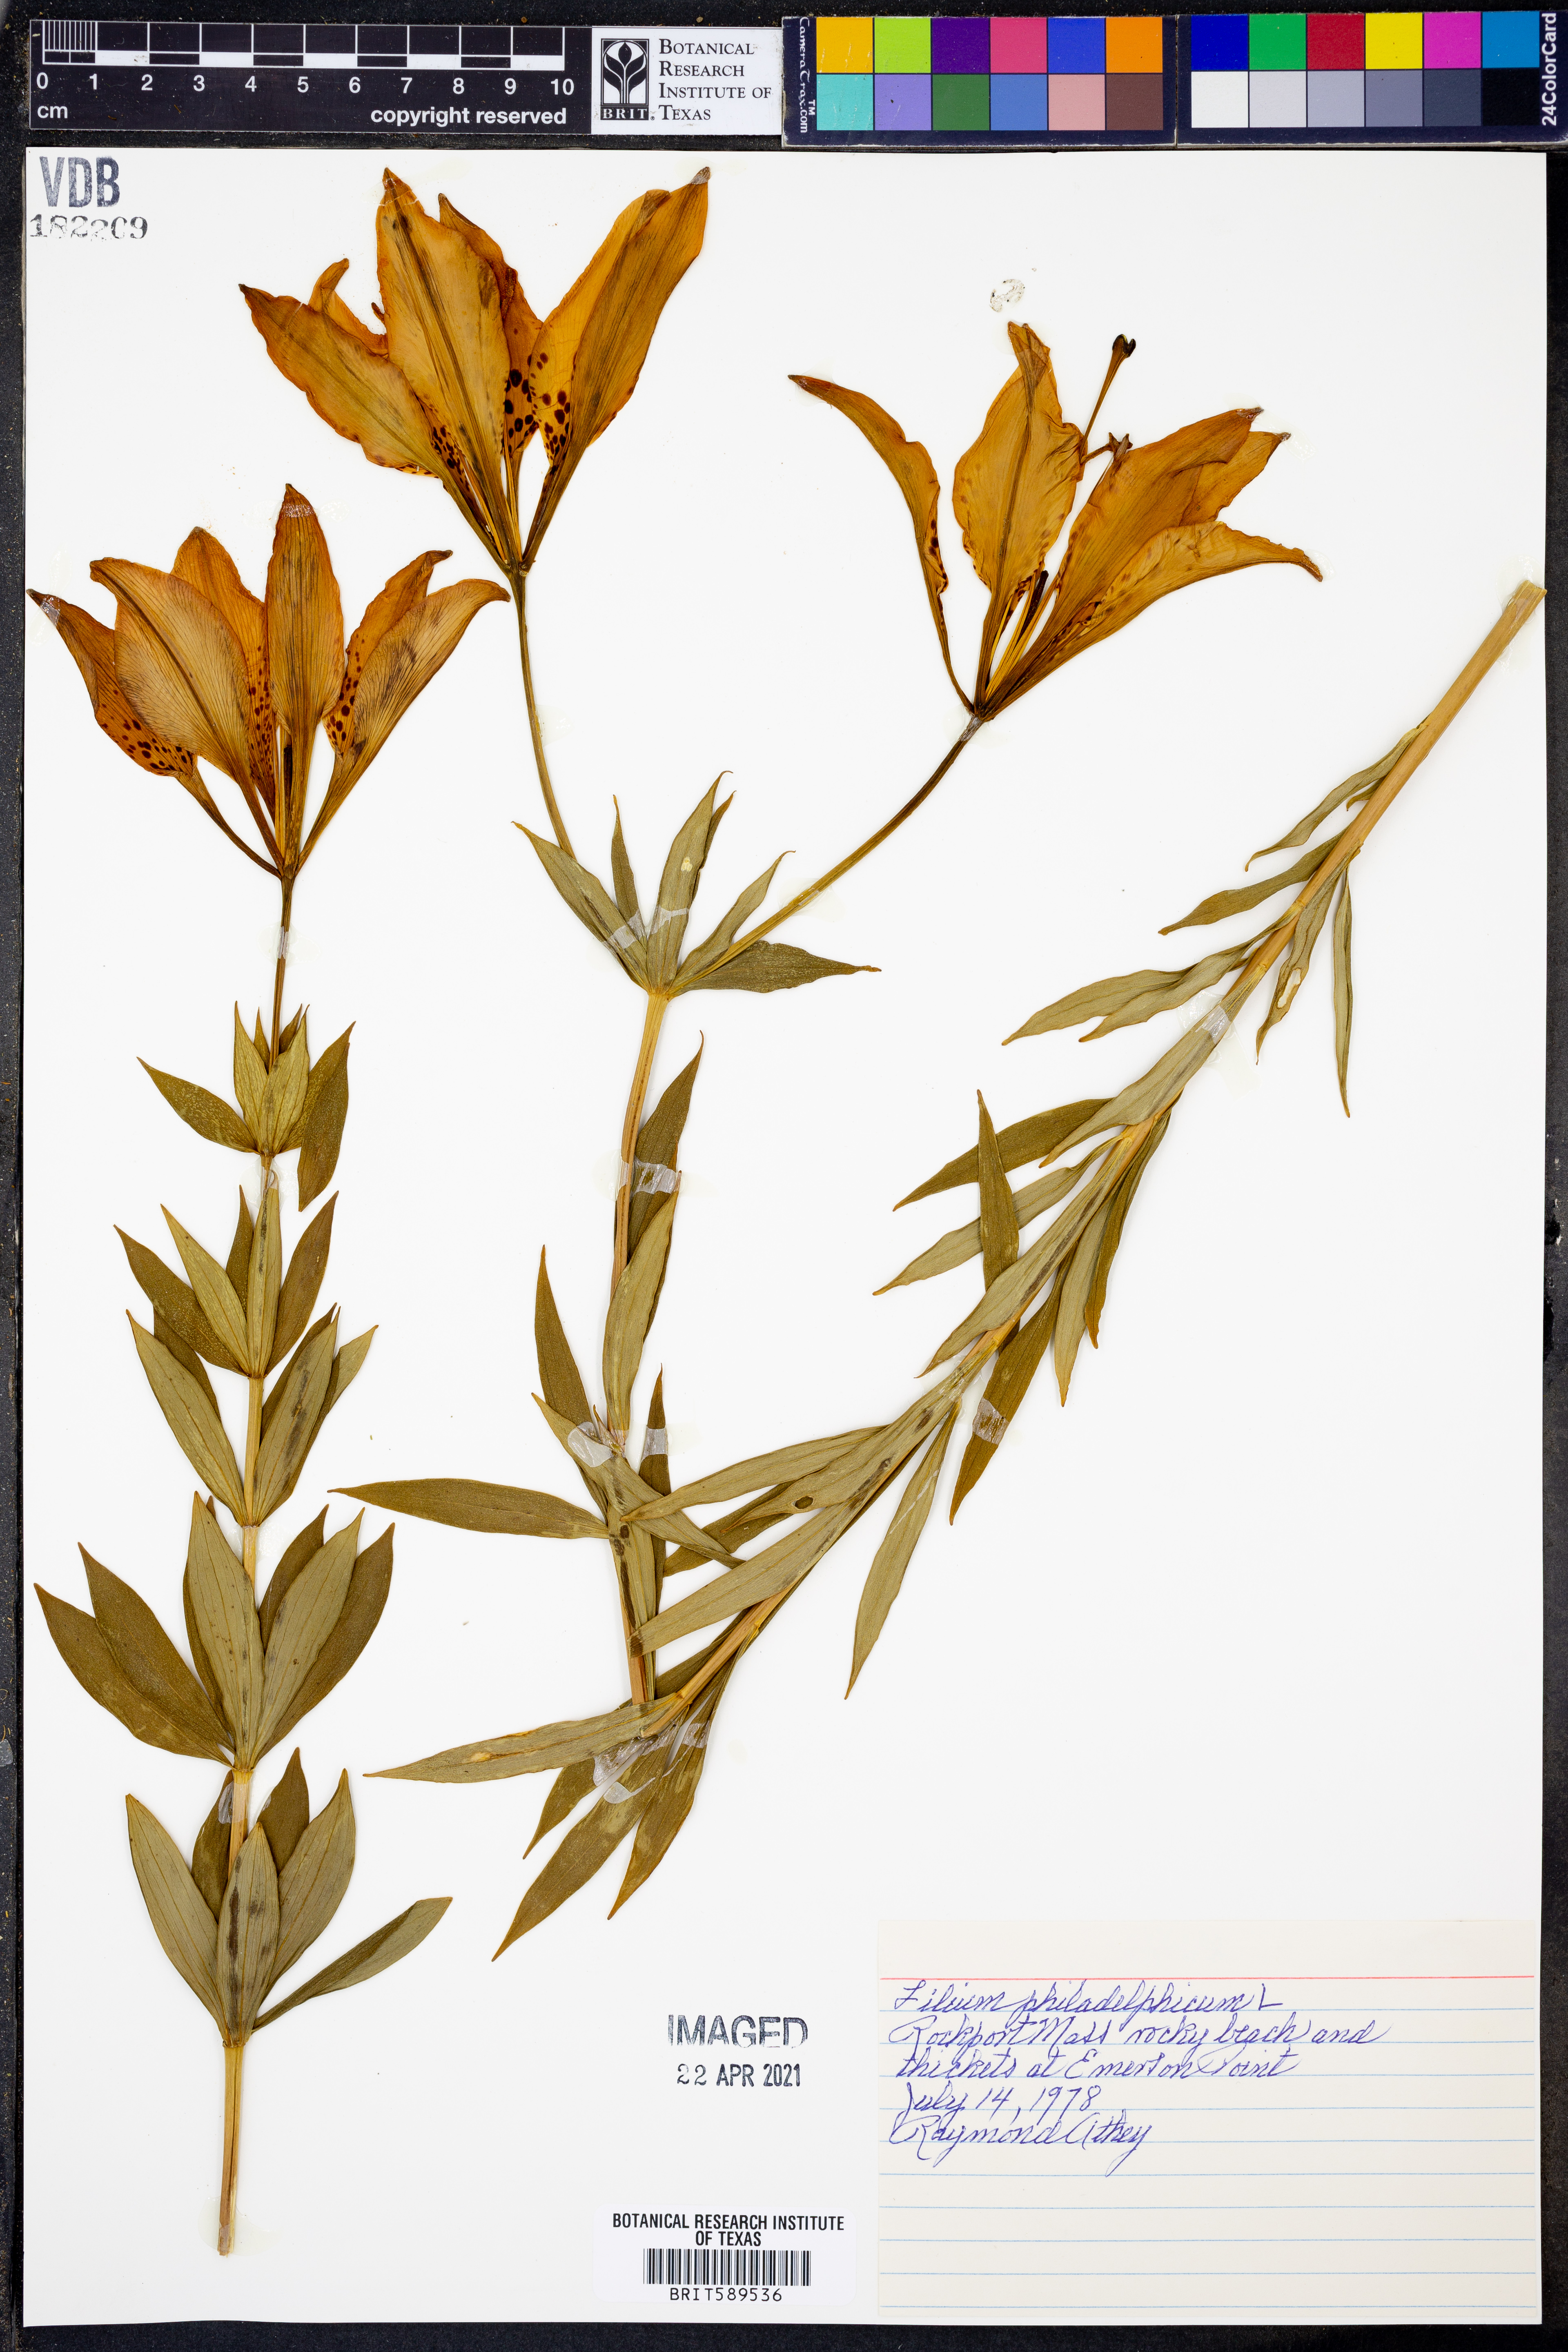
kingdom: Plantae
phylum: Tracheophyta
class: Liliopsida
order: Liliales
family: Liliaceae
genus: Lilium
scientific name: Lilium philadelphicum
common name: Red lily
